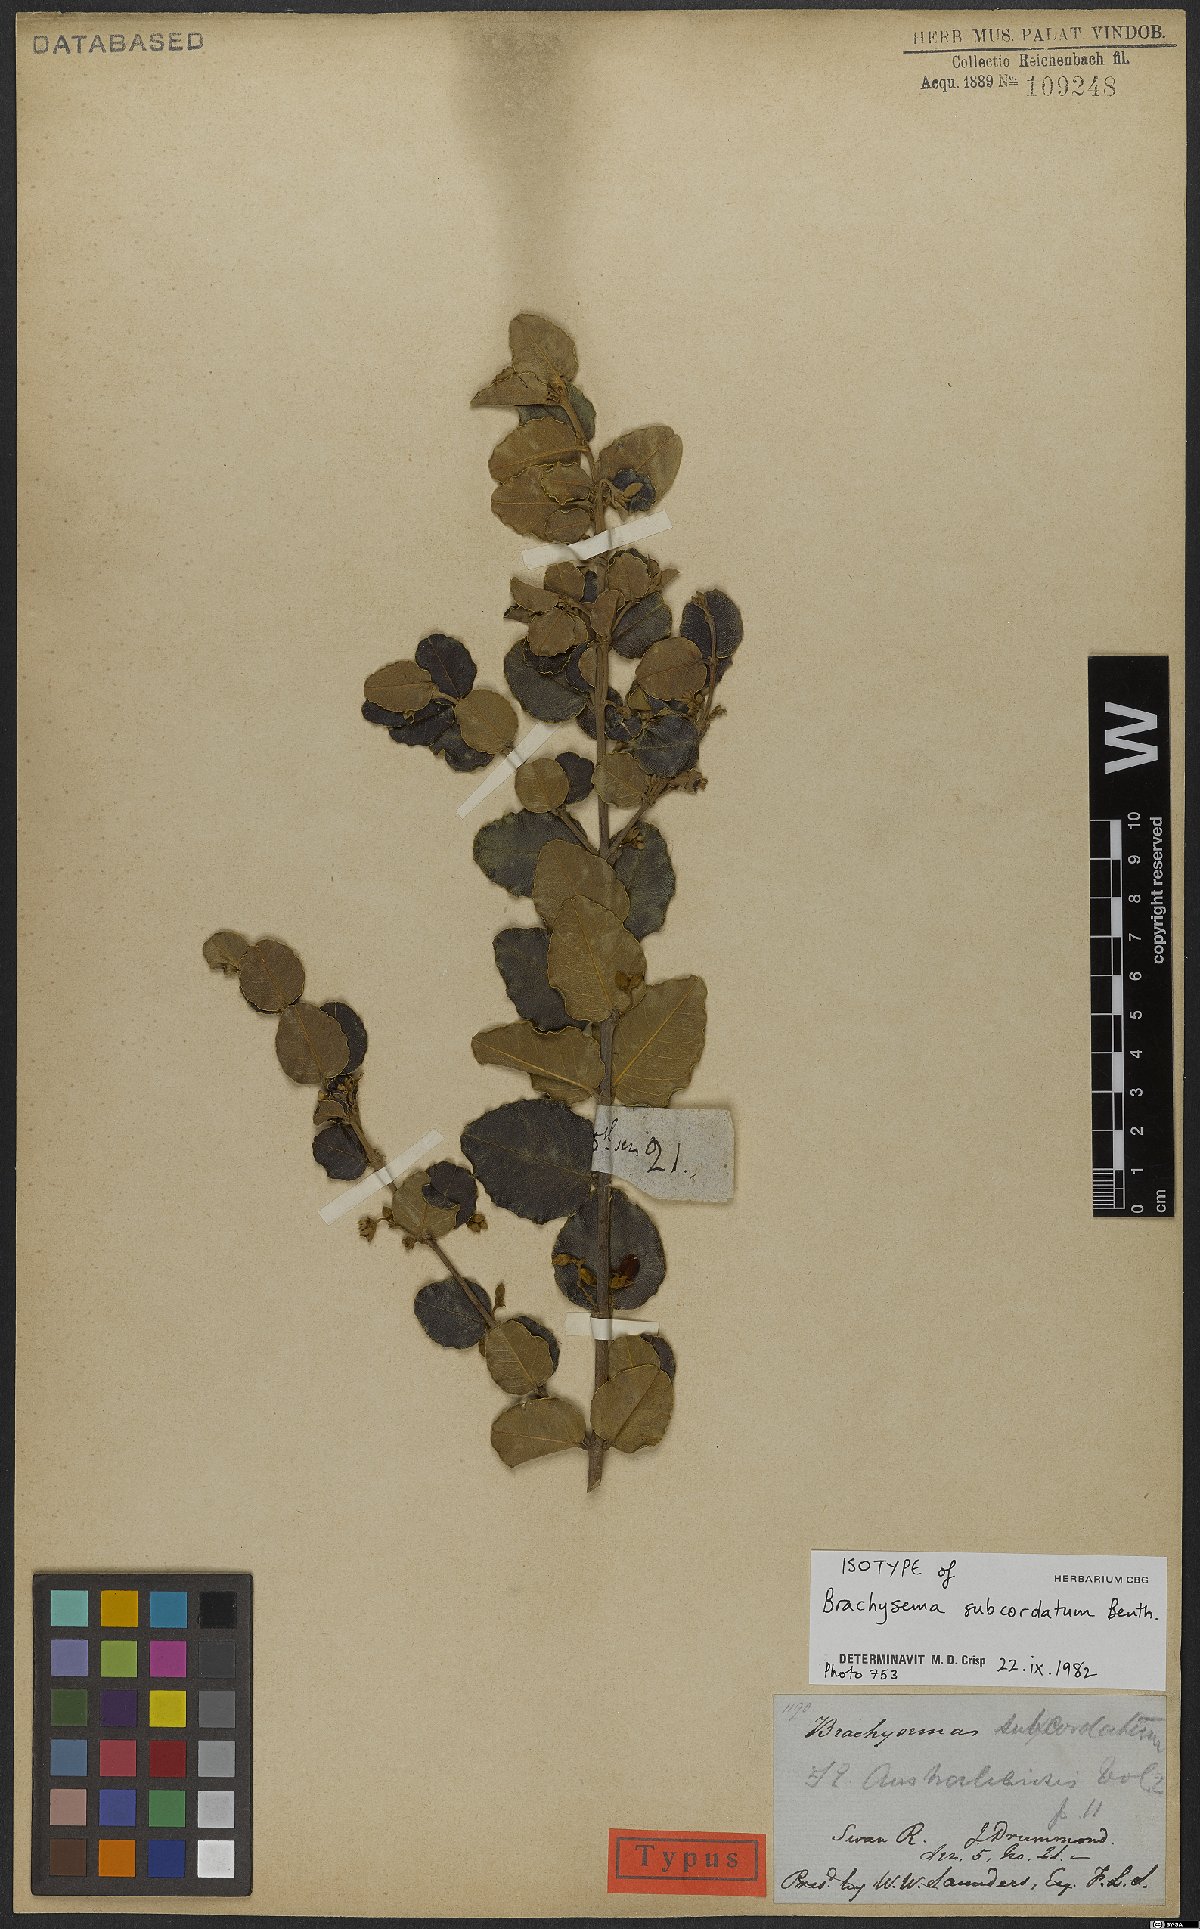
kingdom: Plantae
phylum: Tracheophyta
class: Magnoliopsida
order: Fabales
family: Fabaceae
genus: Gastrolobium
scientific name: Gastrolobium subcordatum
